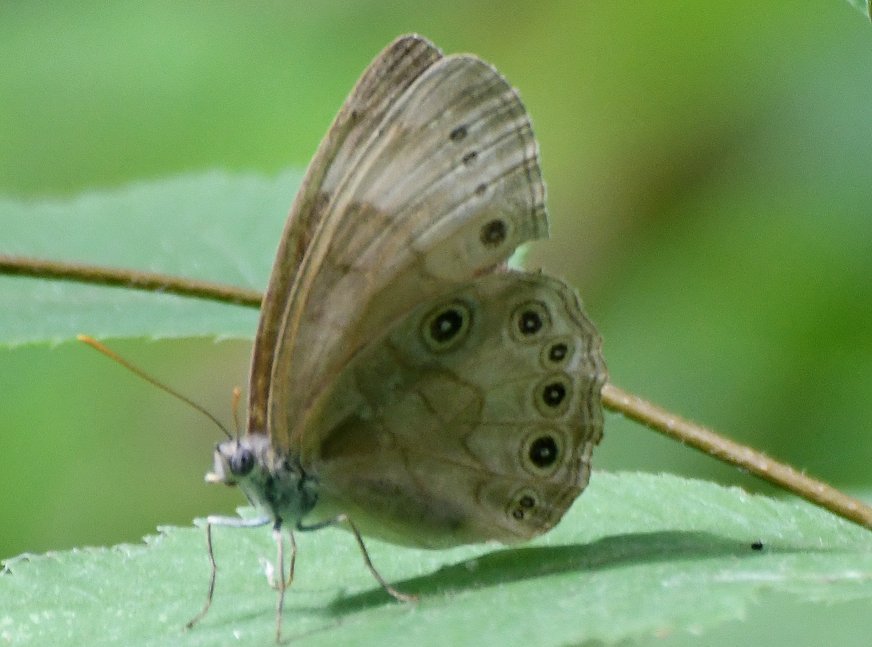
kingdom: Animalia
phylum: Arthropoda
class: Insecta
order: Lepidoptera
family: Nymphalidae
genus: Lethe
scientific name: Lethe eurydice
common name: Appalachian Eyed Brown
